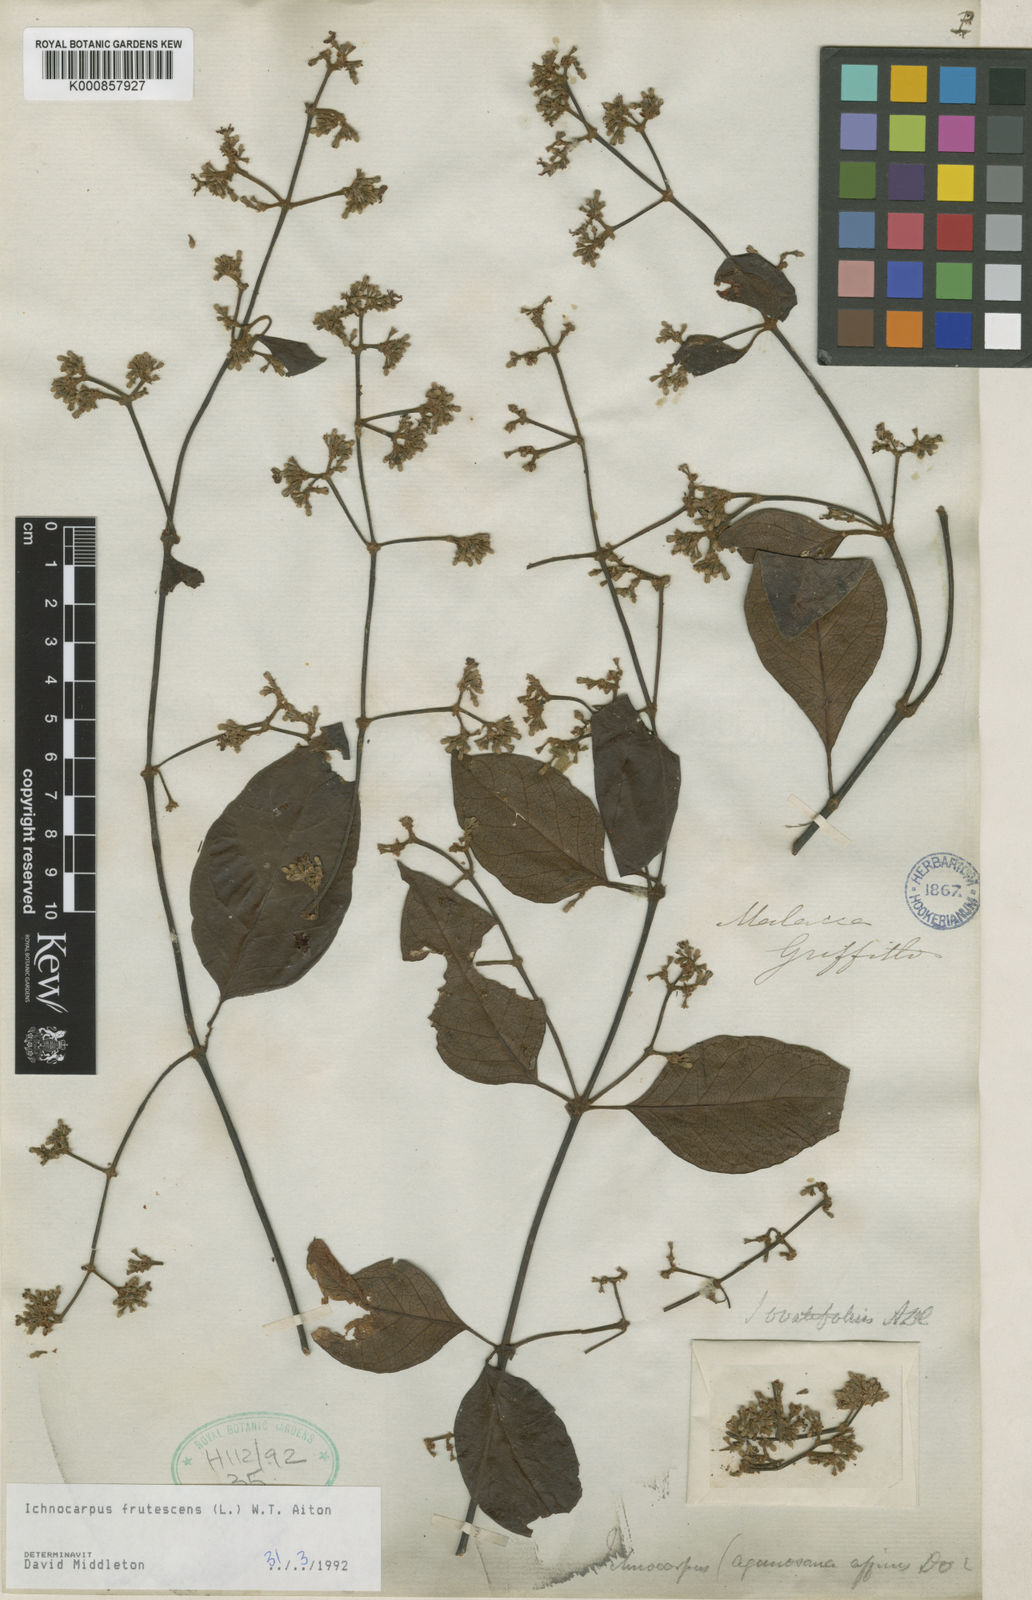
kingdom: Plantae
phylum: Tracheophyta
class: Magnoliopsida
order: Gentianales
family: Apocynaceae
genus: Ichnocarpus
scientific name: Ichnocarpus frutescens
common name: Ichnocarpus
